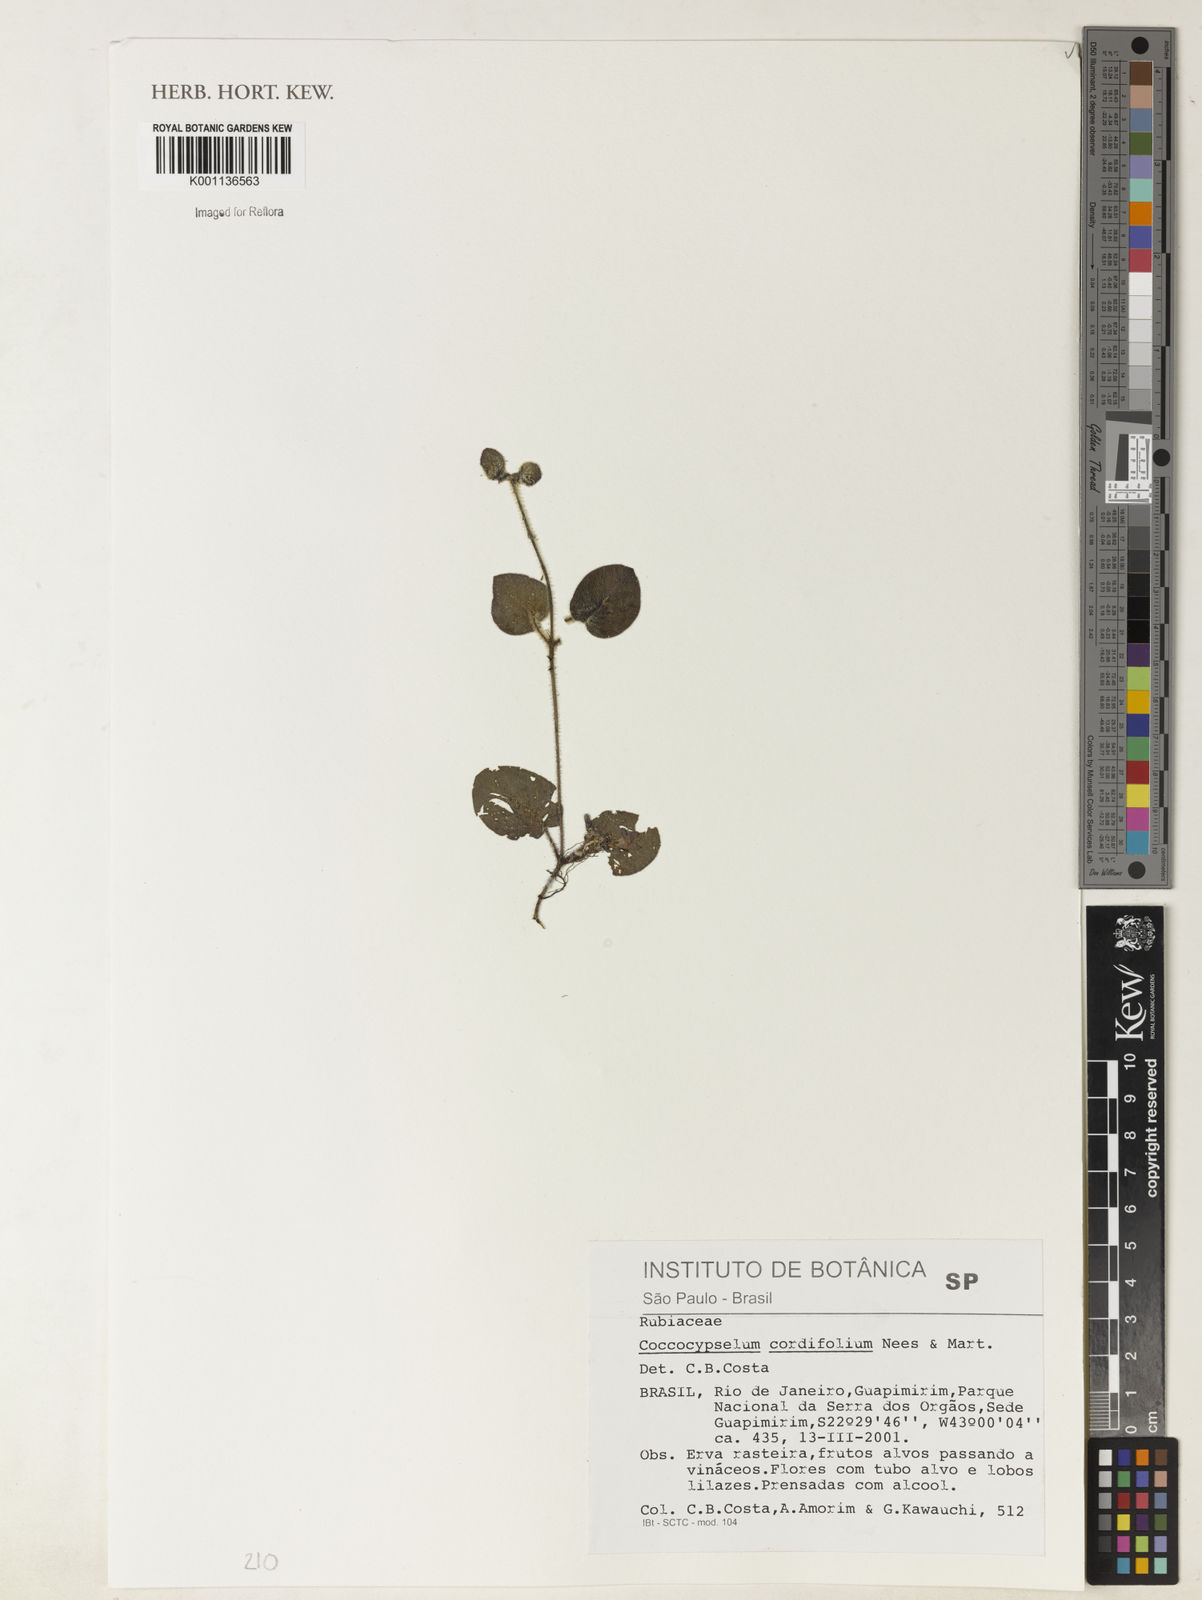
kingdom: Plantae
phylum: Tracheophyta
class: Magnoliopsida
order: Gentianales
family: Rubiaceae
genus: Coccocypselum
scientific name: Coccocypselum cordifolium
